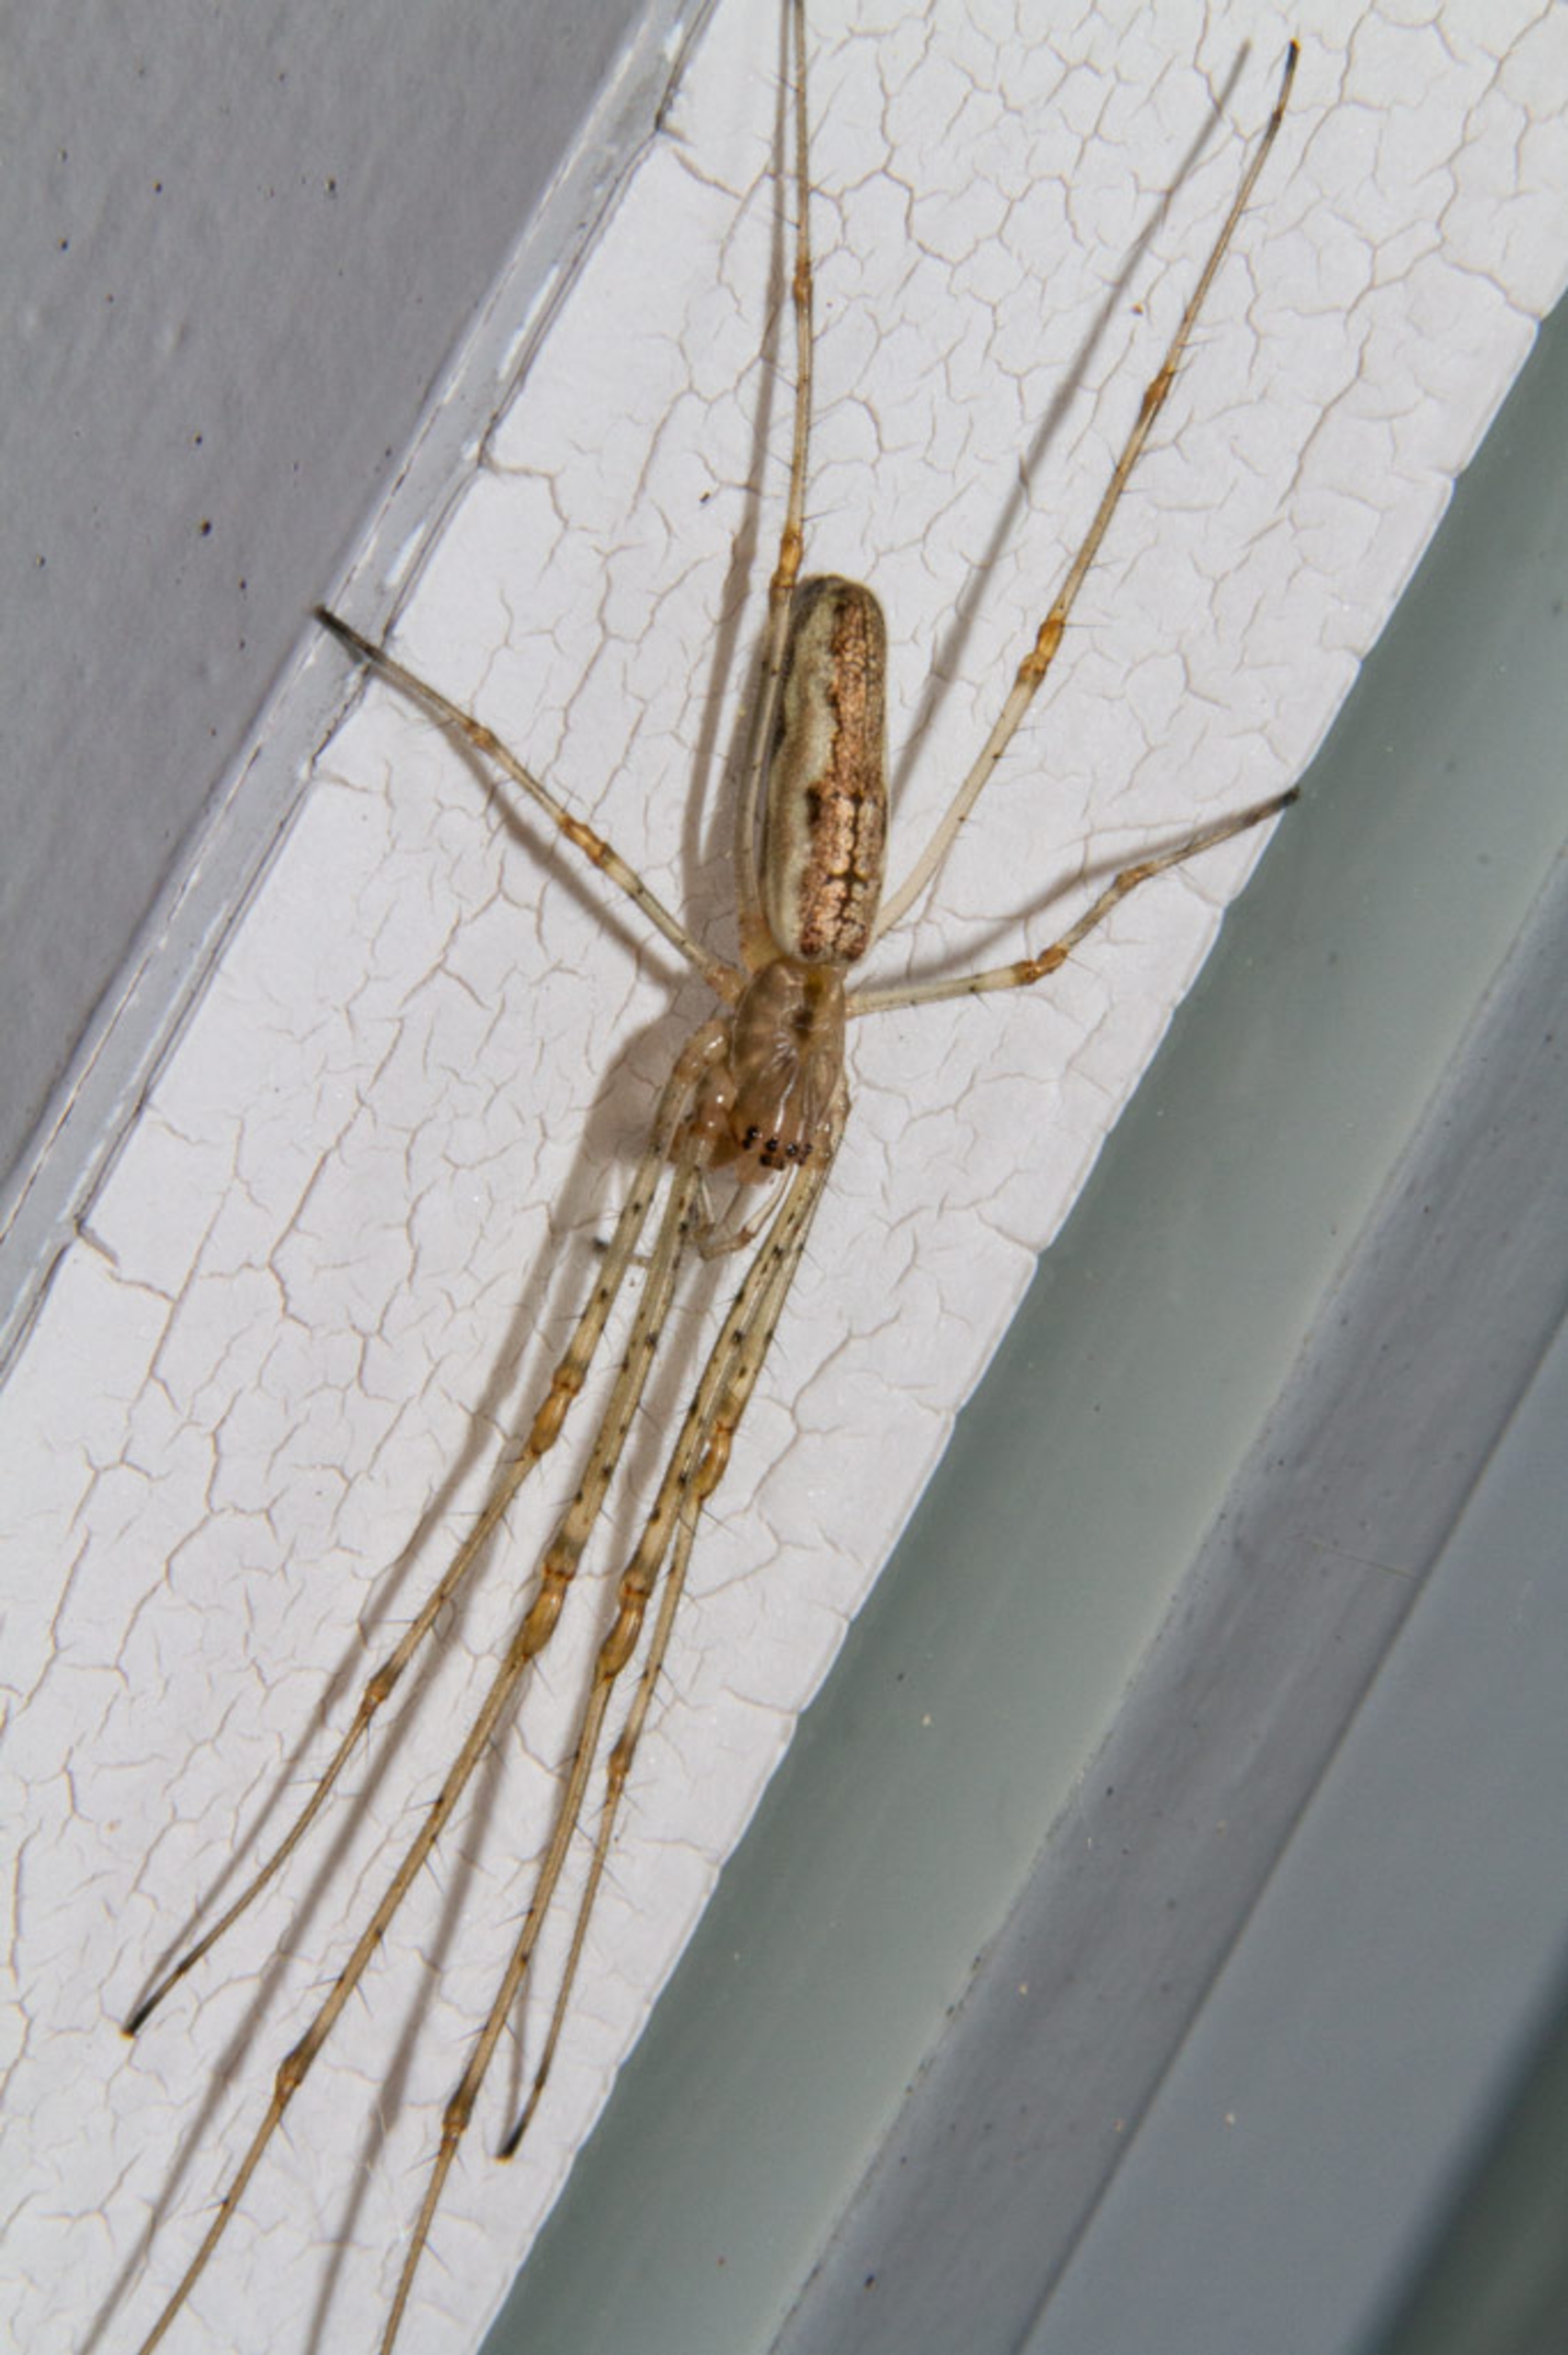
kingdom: Animalia
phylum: Arthropoda
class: Arachnida
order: Araneae
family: Tetragnathidae
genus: Tetragnatha
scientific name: Tetragnatha
